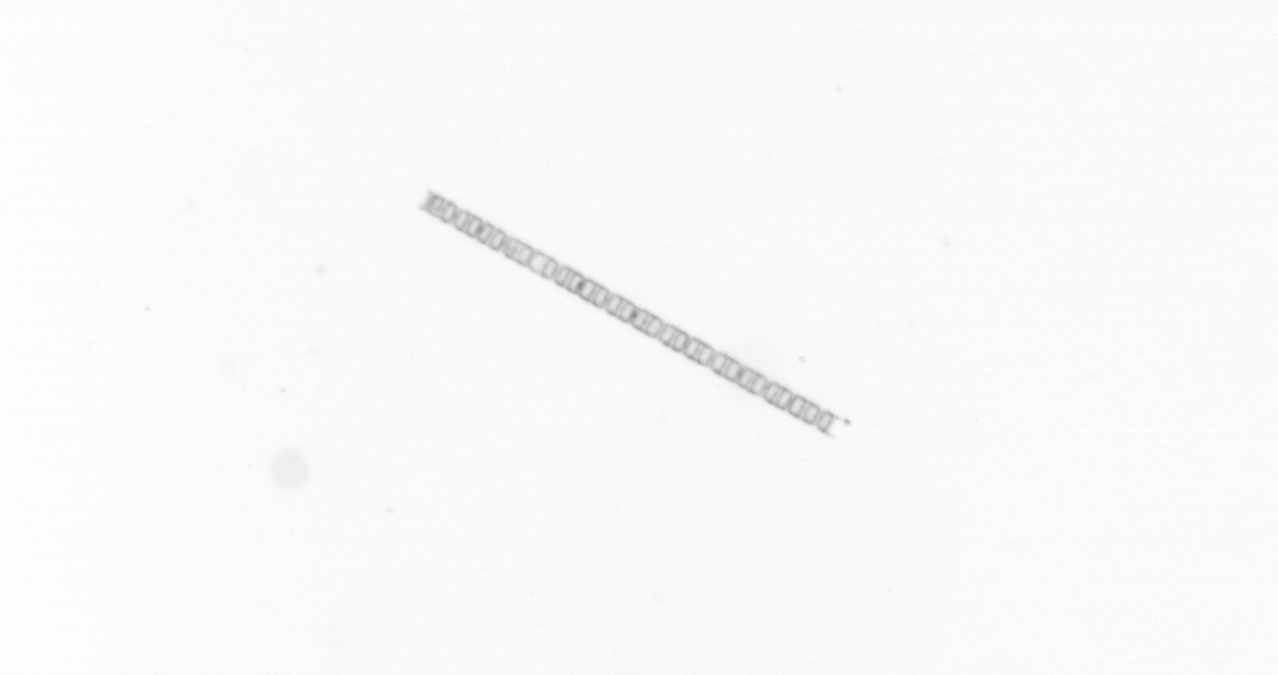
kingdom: Chromista
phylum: Ochrophyta
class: Bacillariophyceae
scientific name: Bacillariophyceae
